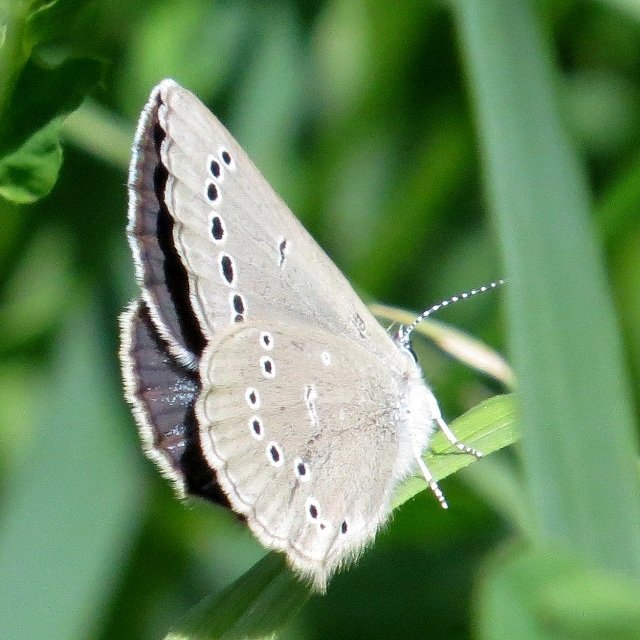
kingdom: Animalia
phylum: Arthropoda
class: Insecta
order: Lepidoptera
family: Lycaenidae
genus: Glaucopsyche
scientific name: Glaucopsyche lygdamus
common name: Silvery Blue
